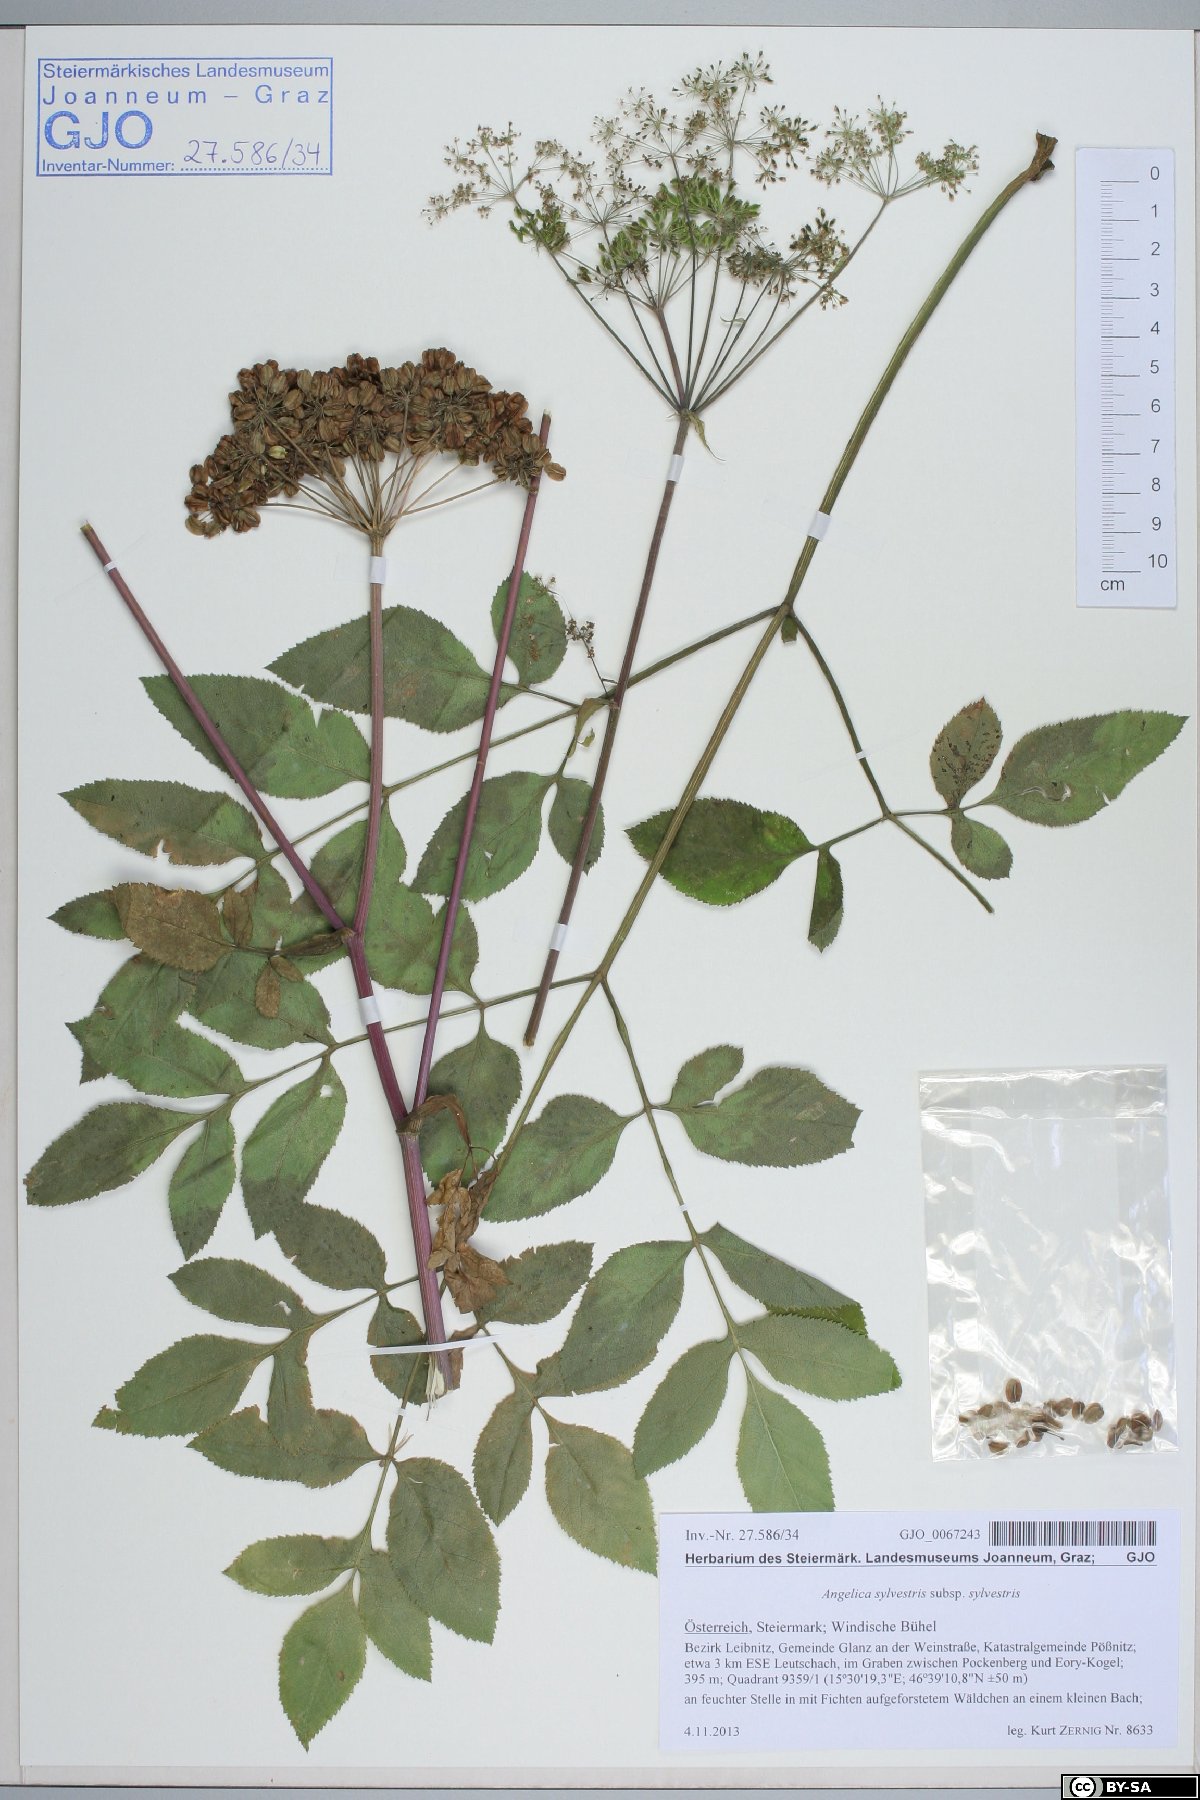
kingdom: Plantae
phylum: Tracheophyta
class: Magnoliopsida
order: Apiales
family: Apiaceae
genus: Angelica
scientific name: Angelica sylvestris
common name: Wild angelica
